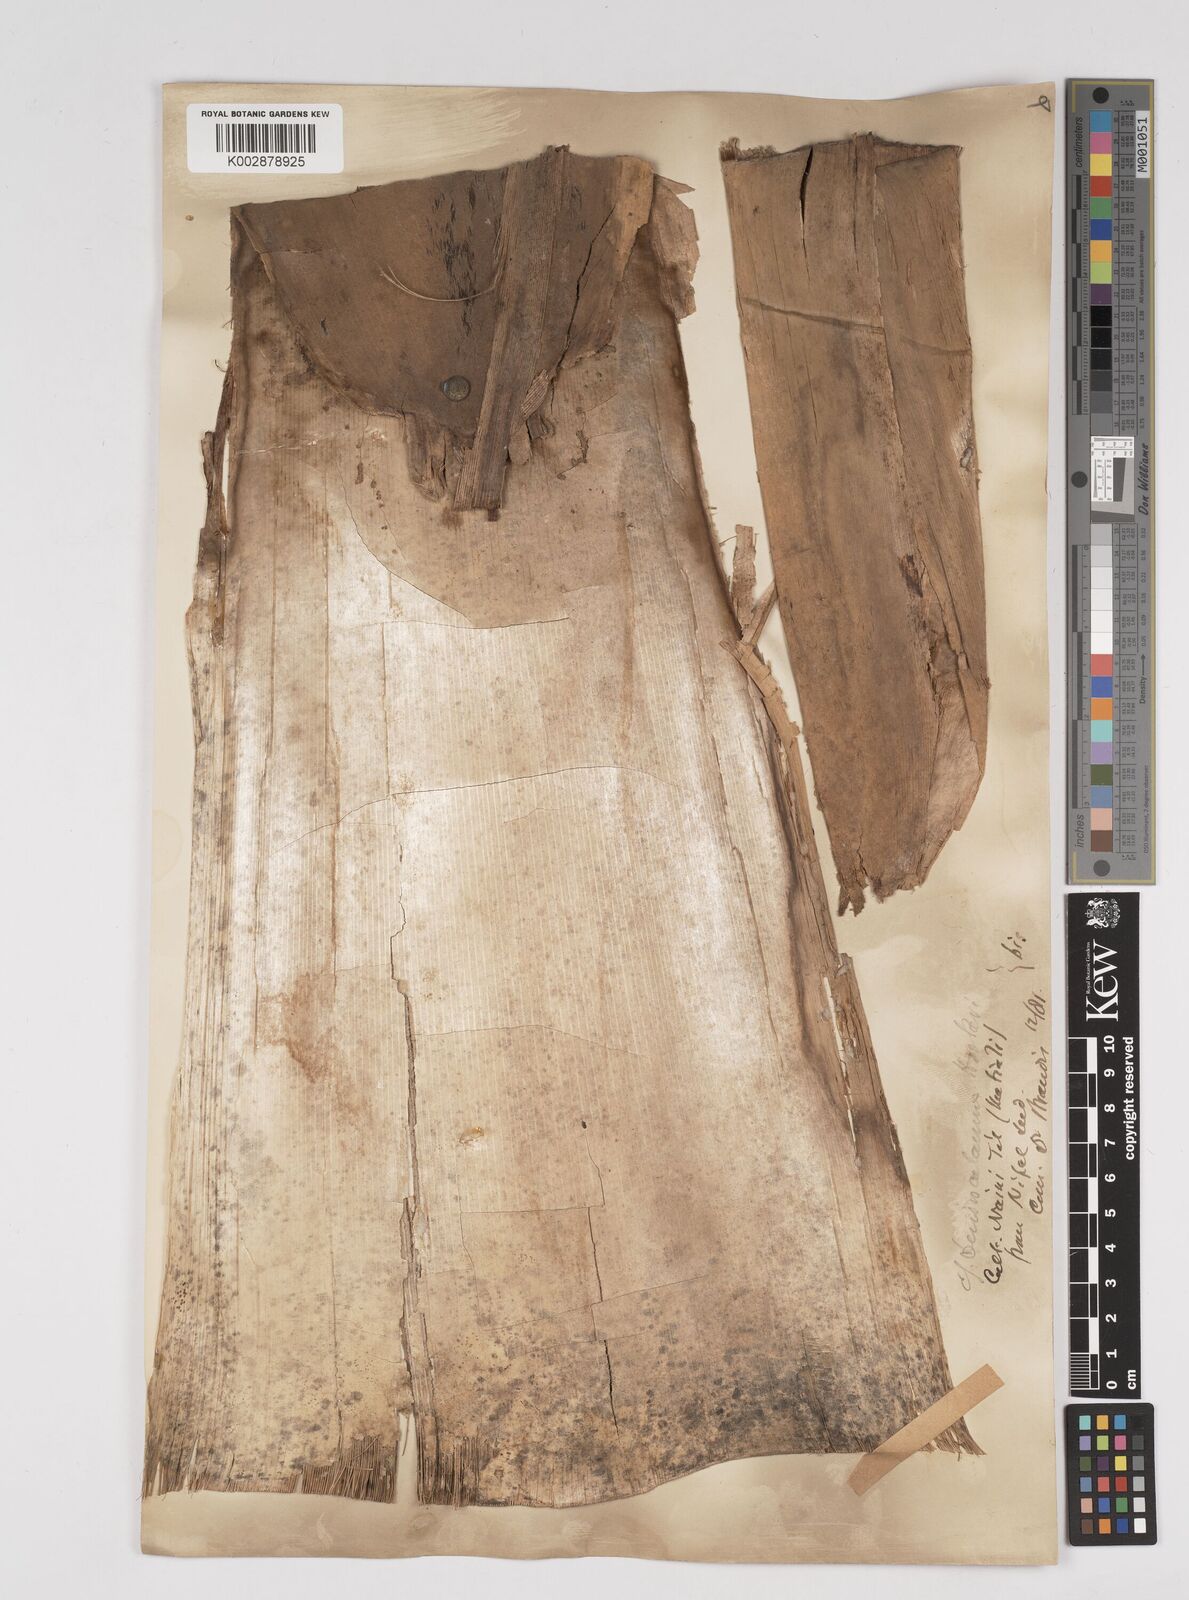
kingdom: Plantae
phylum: Tracheophyta
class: Liliopsida
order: Poales
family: Poaceae
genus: Dendrocalamus
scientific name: Dendrocalamus hookeri
